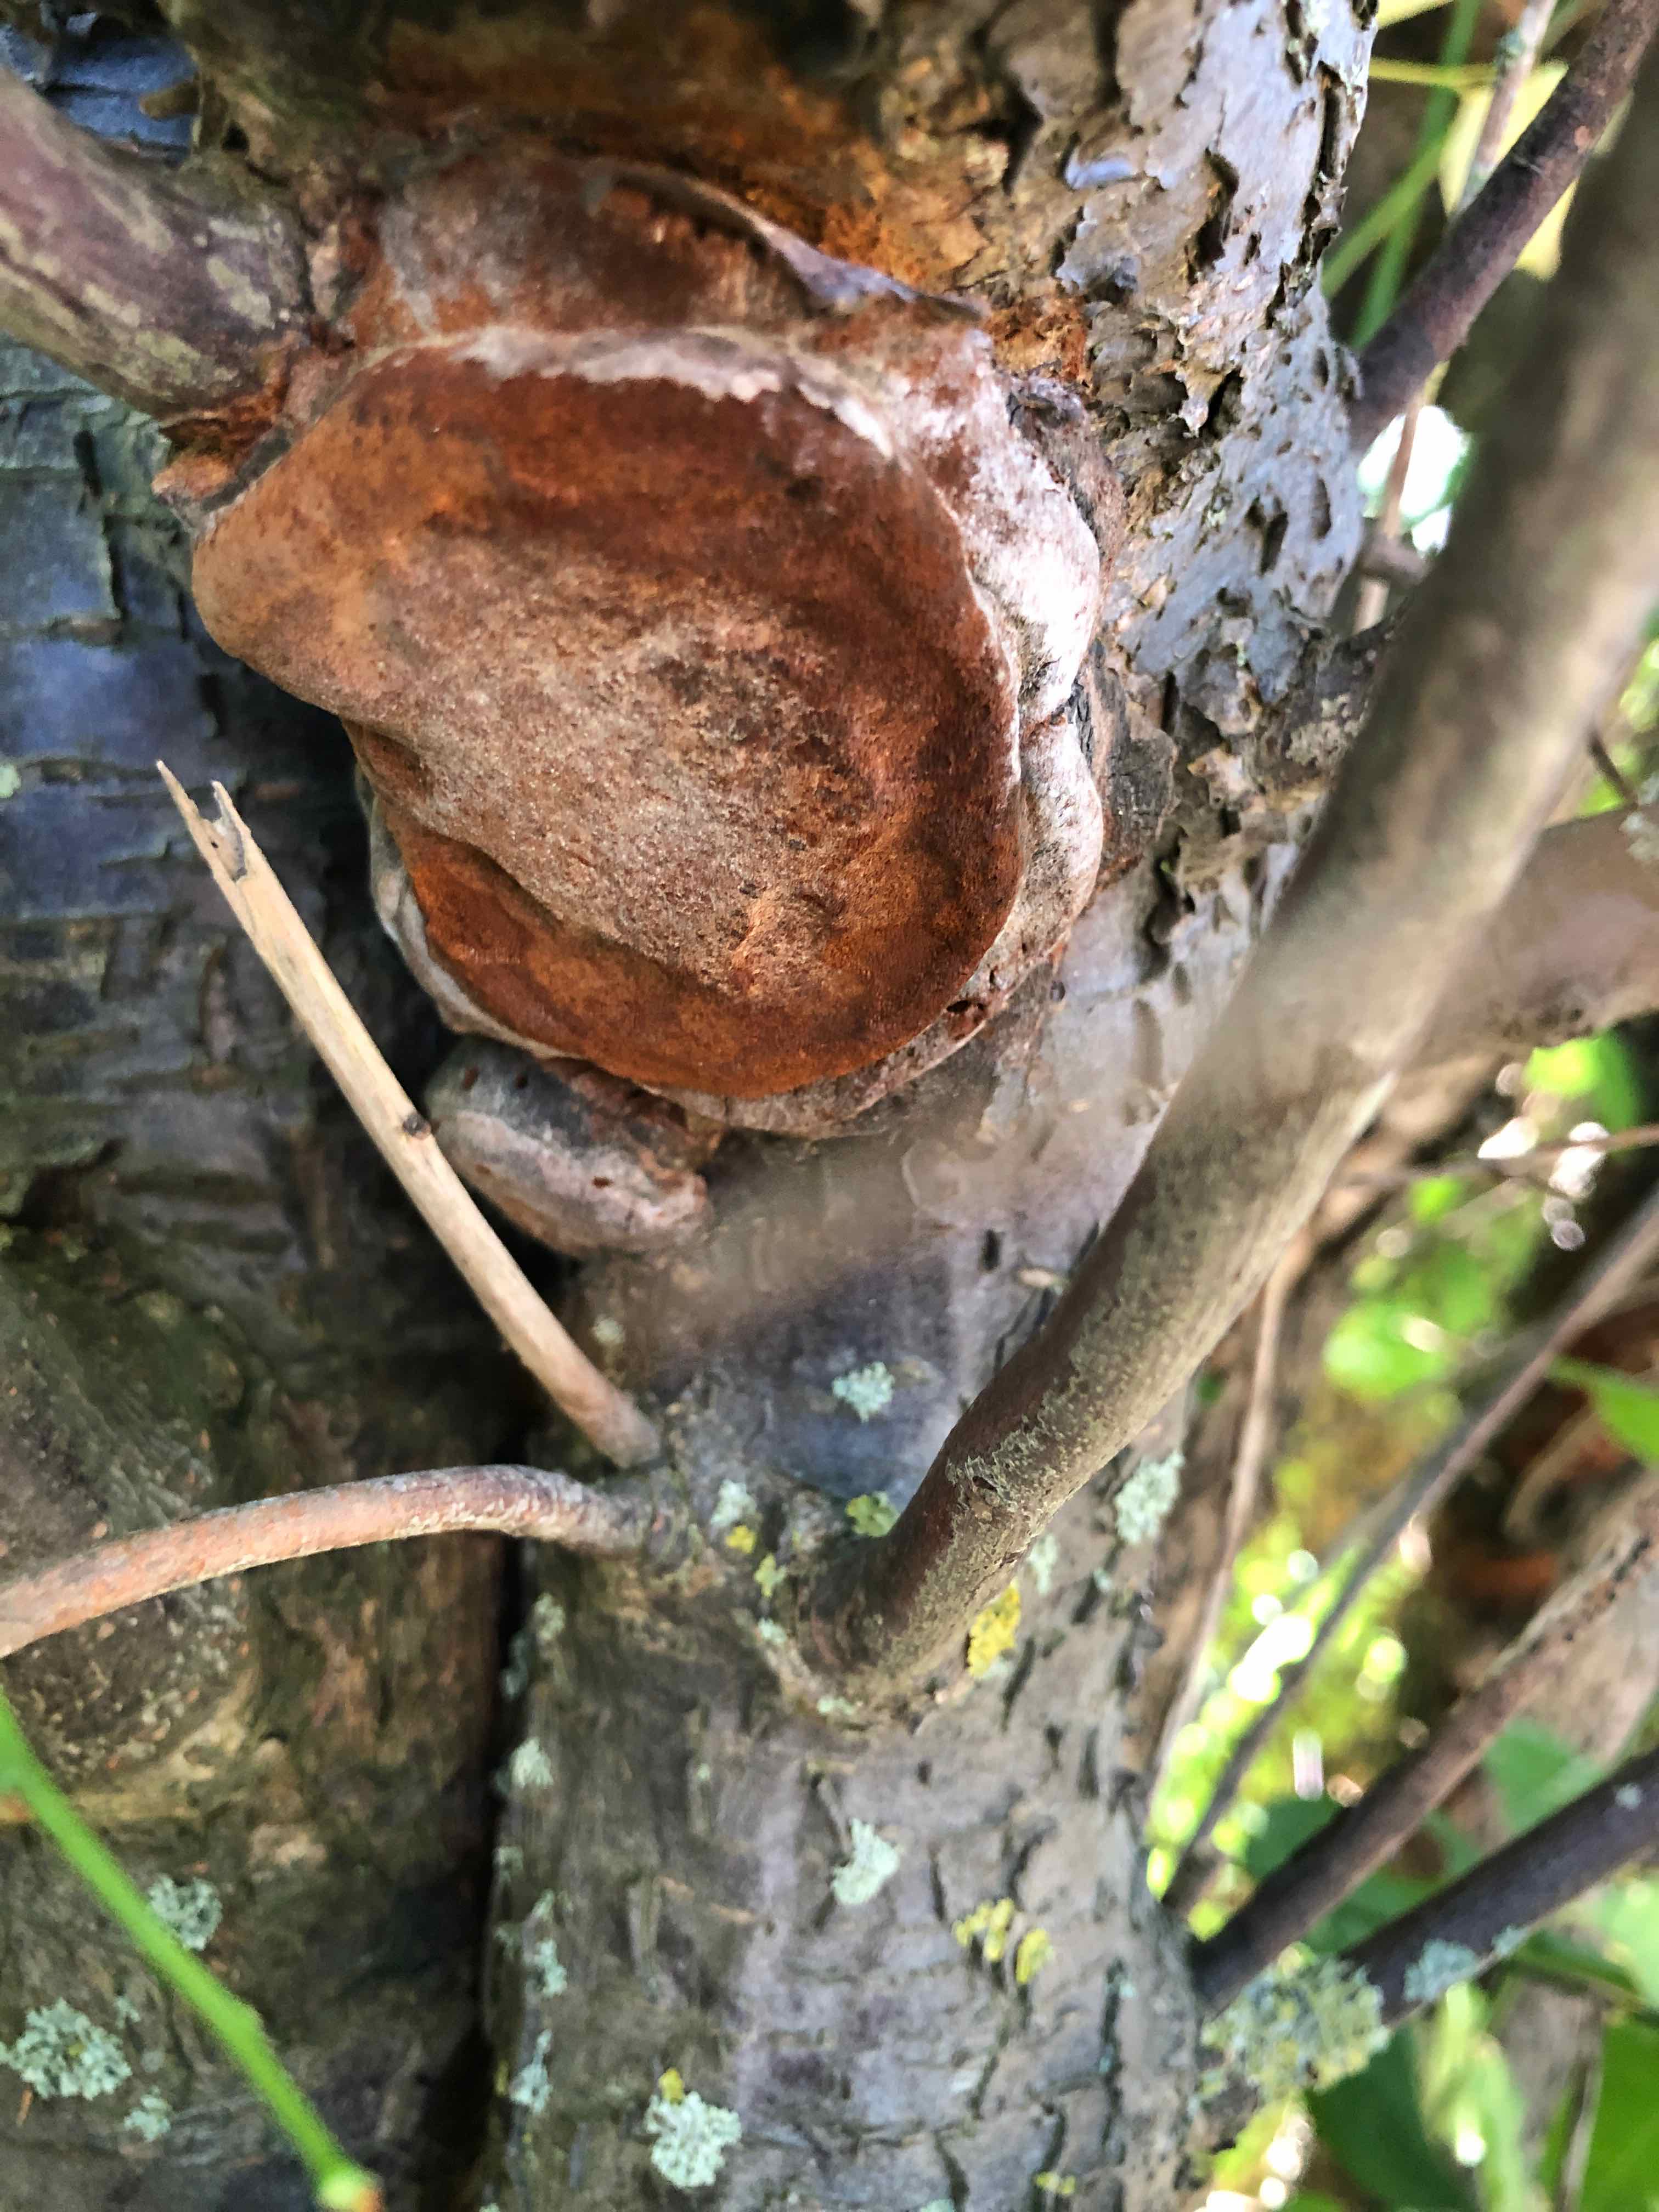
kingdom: Fungi
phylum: Basidiomycota
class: Agaricomycetes
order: Hymenochaetales
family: Hymenochaetaceae
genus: Phellinus
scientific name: Phellinus pomaceus
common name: blomme-ildporesvamp
